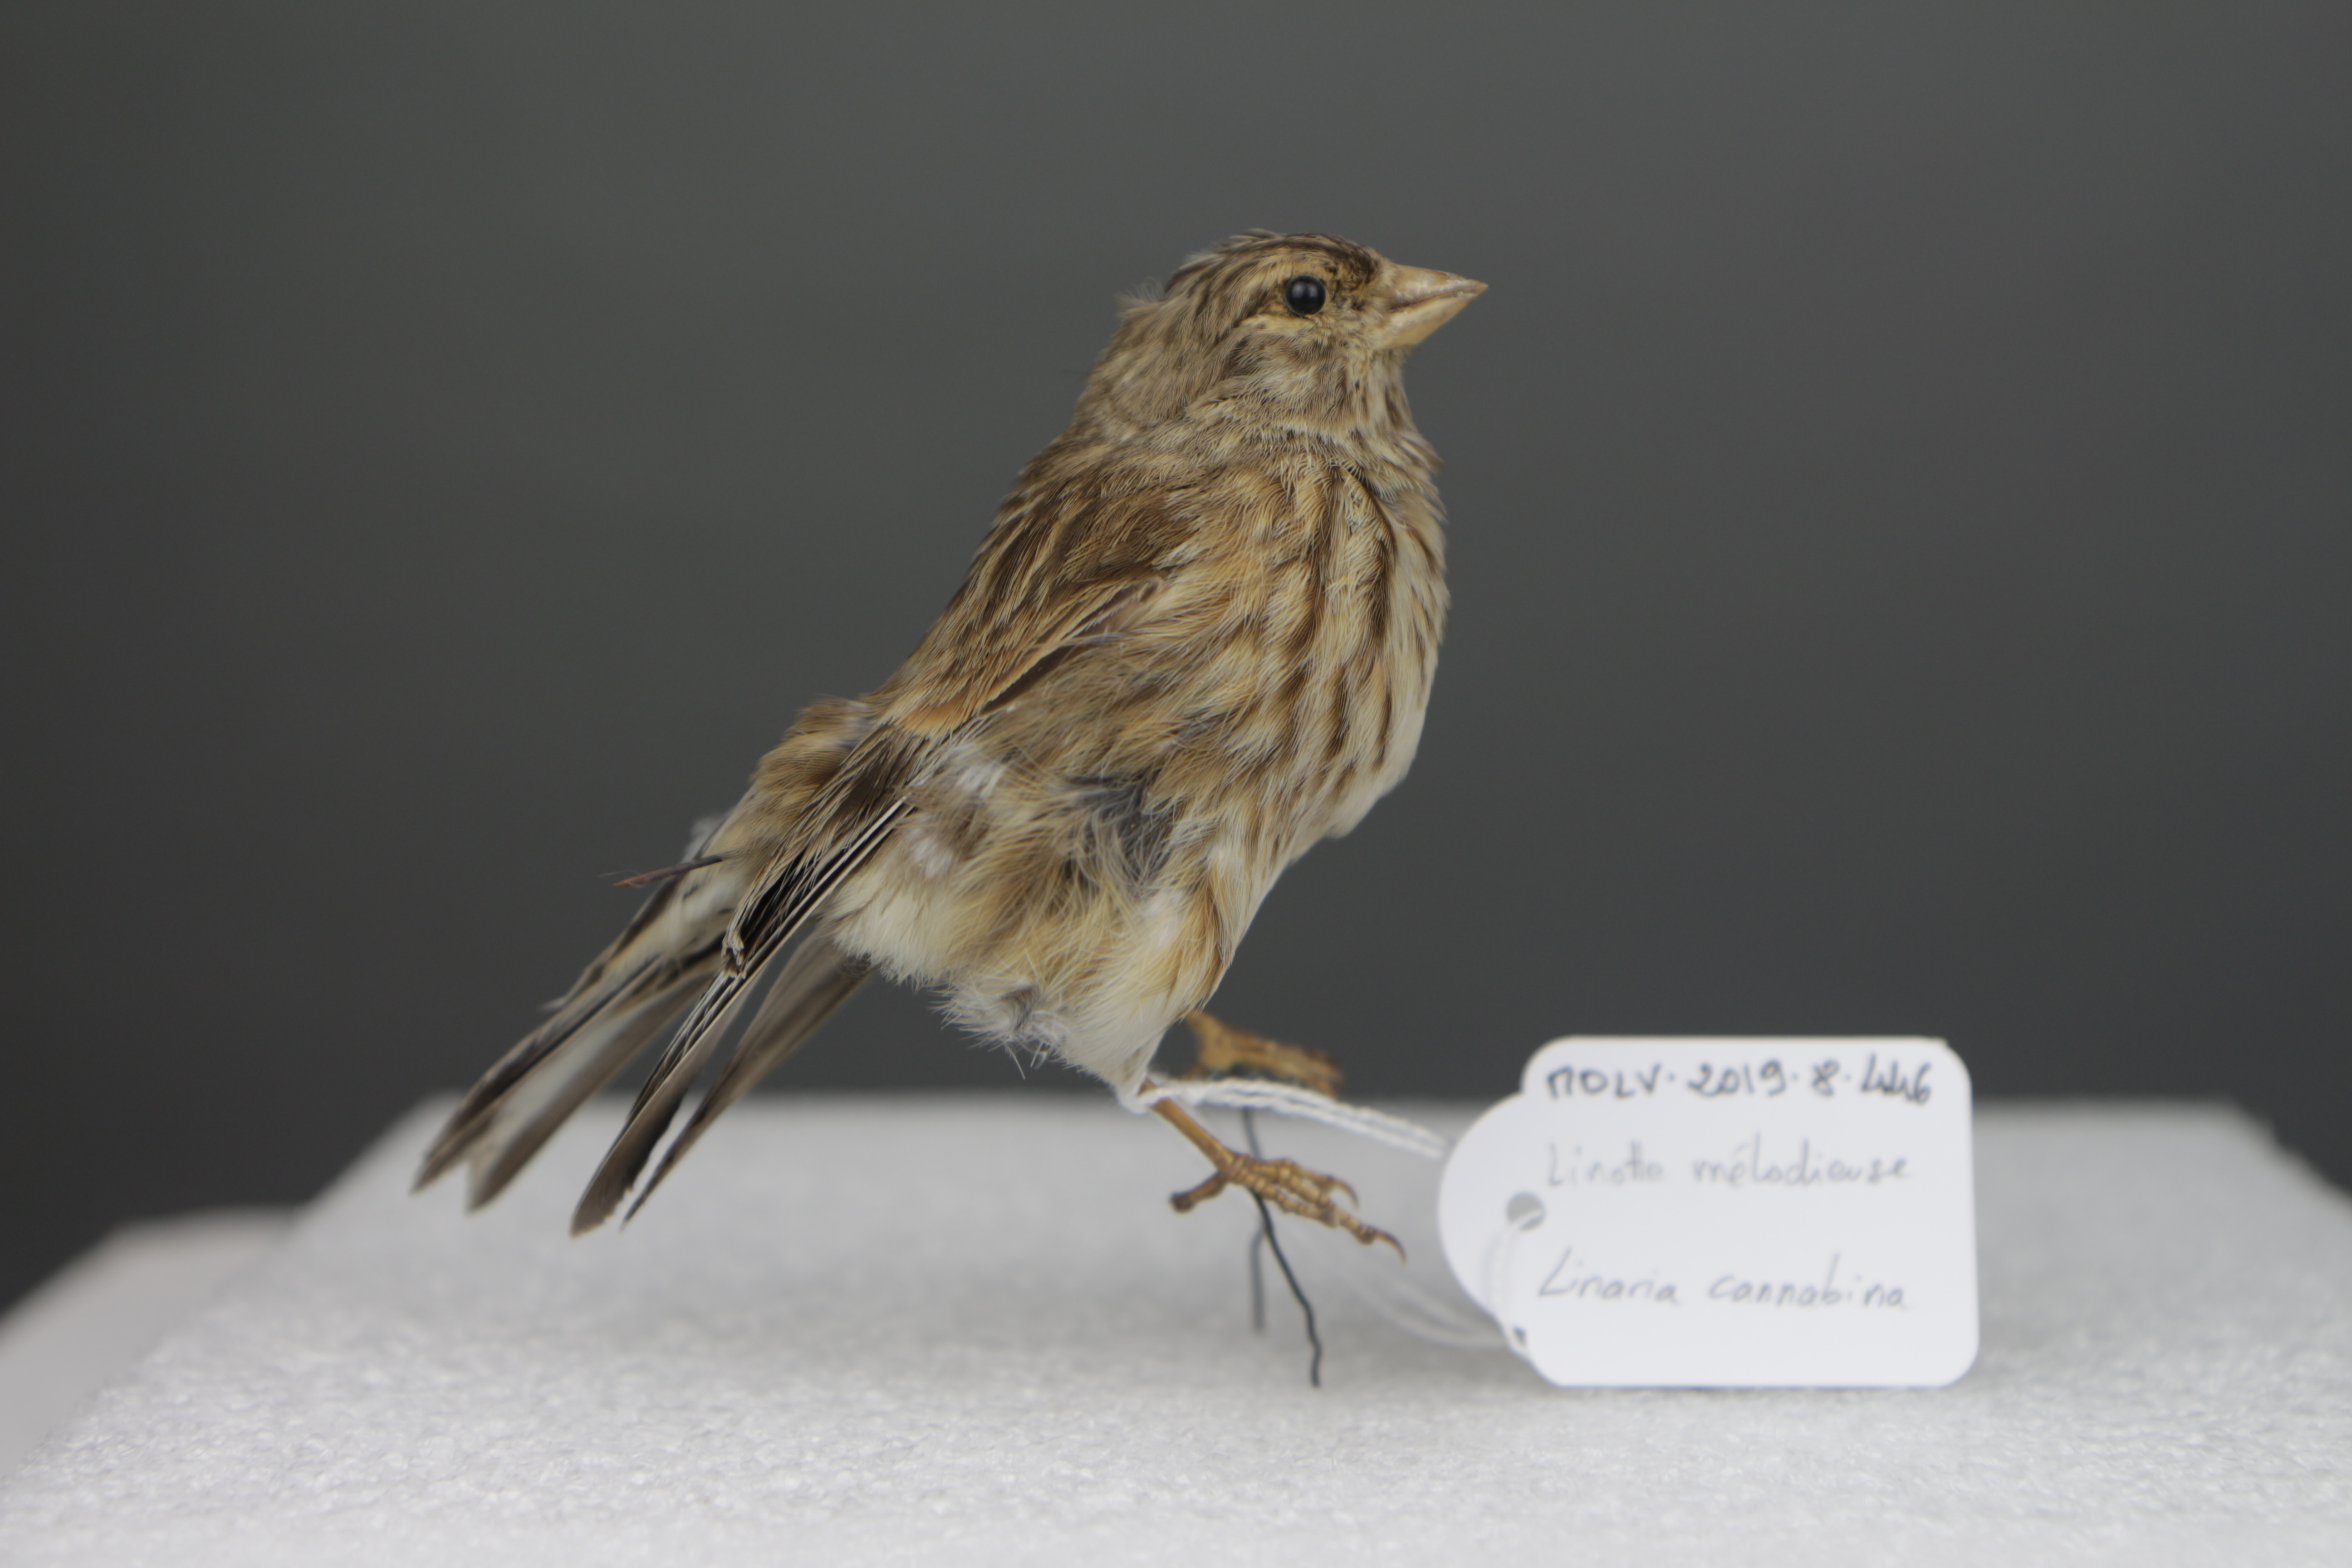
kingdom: Animalia
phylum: Chordata
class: Aves
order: Passeriformes
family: Fringillidae
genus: Linaria
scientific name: Linaria cannabina
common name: Common linnet
